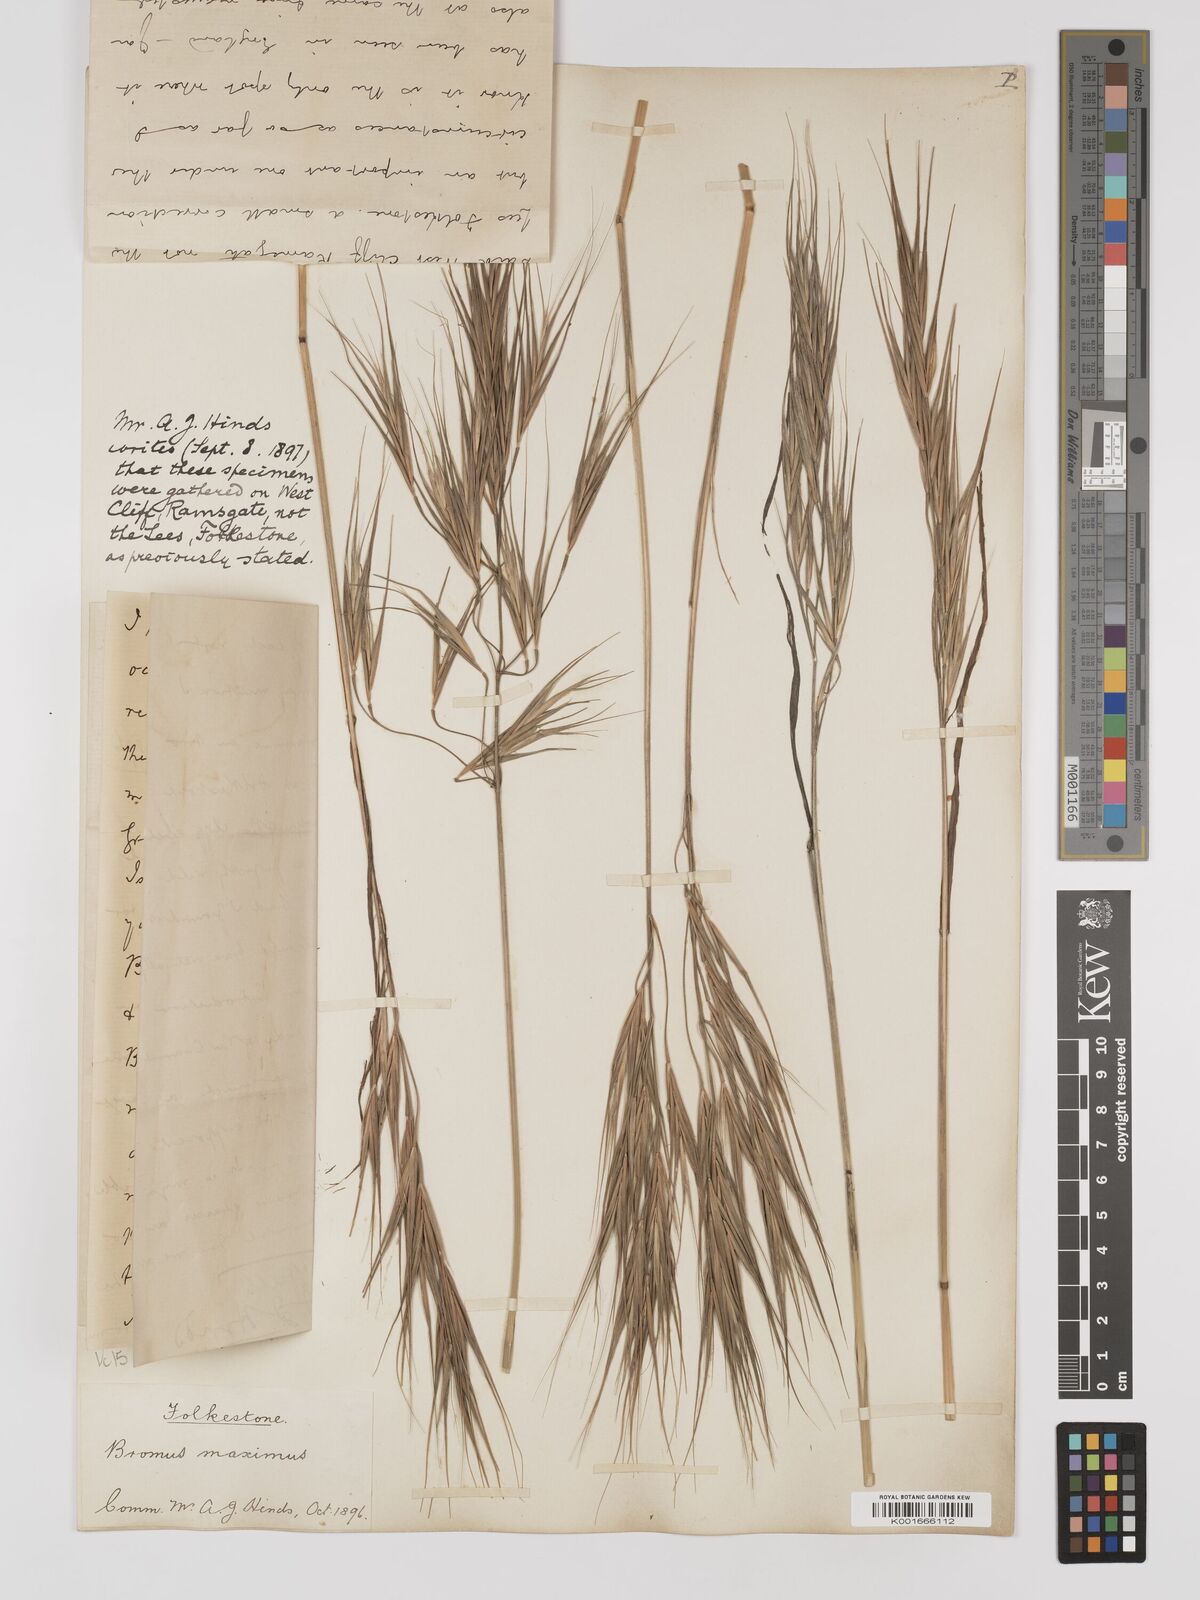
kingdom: Plantae
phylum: Tracheophyta
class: Liliopsida
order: Poales
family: Poaceae
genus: Bromus
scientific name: Bromus
